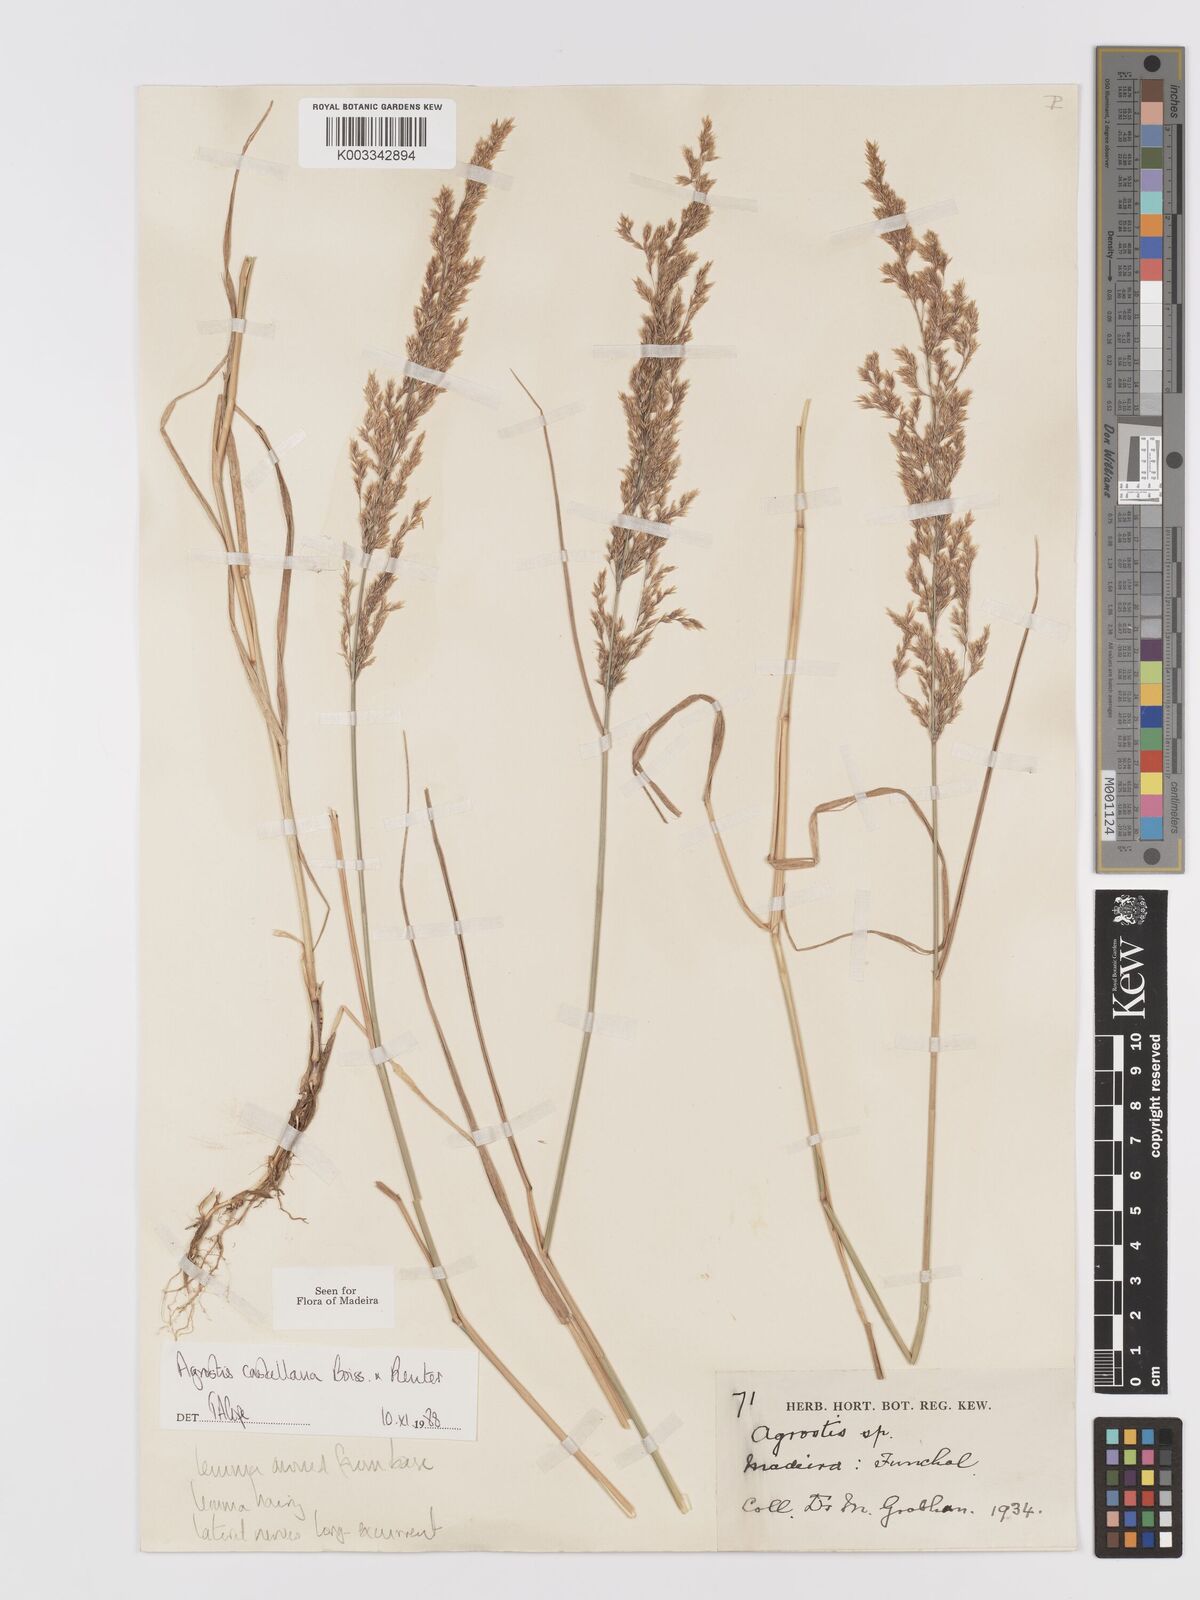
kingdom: Plantae
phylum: Tracheophyta
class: Liliopsida
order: Poales
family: Poaceae
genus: Agrostis
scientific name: Agrostis castellana
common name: Highland bent
